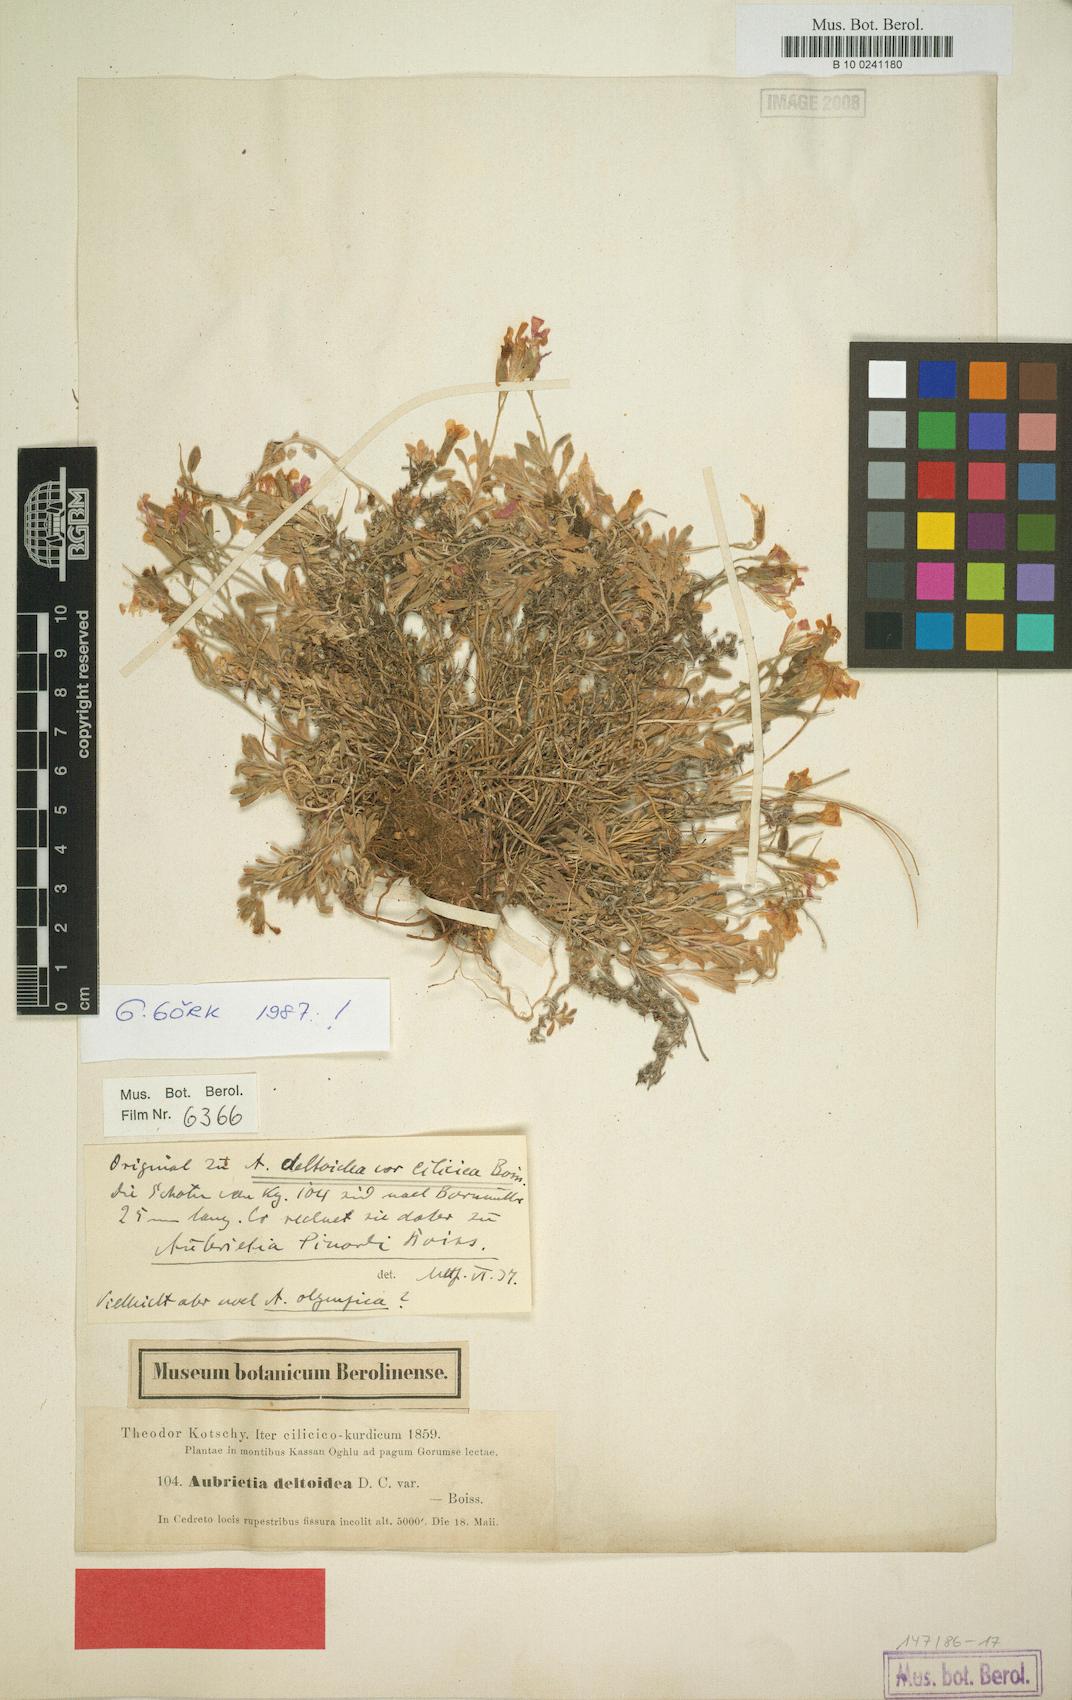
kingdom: Plantae
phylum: Tracheophyta
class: Magnoliopsida
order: Brassicales
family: Brassicaceae
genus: Aubrieta
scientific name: Aubrieta deltoidea
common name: Aubretia
